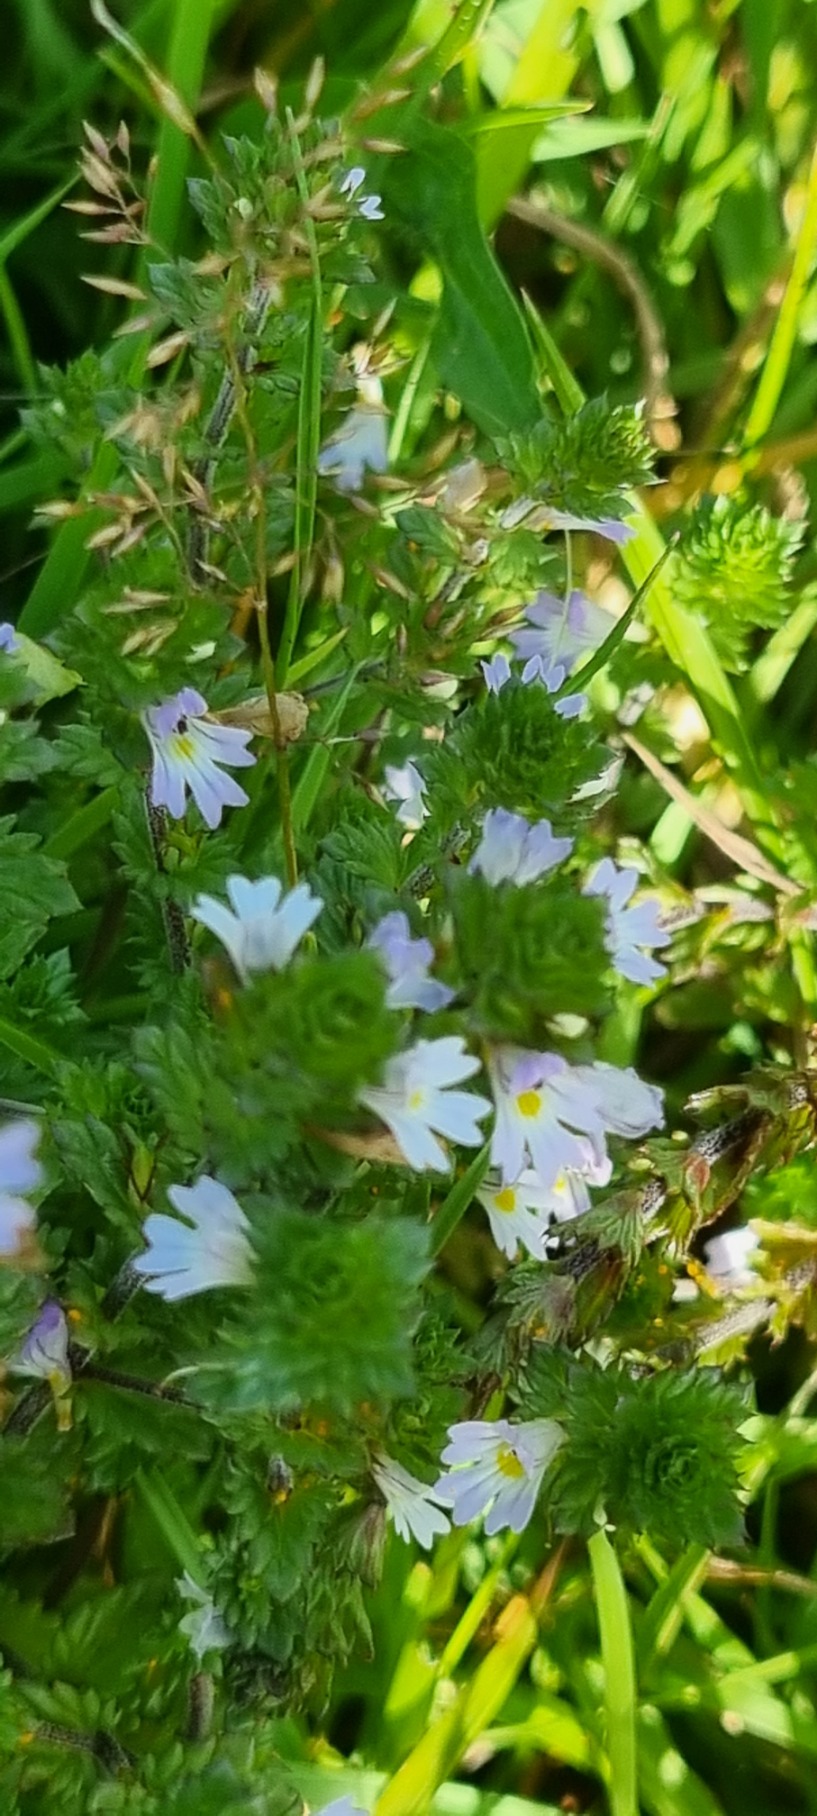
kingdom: Plantae
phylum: Tracheophyta
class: Magnoliopsida
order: Lamiales
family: Orobanchaceae
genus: Euphrasia
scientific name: Euphrasia stricta
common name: Spids øjentrøst
